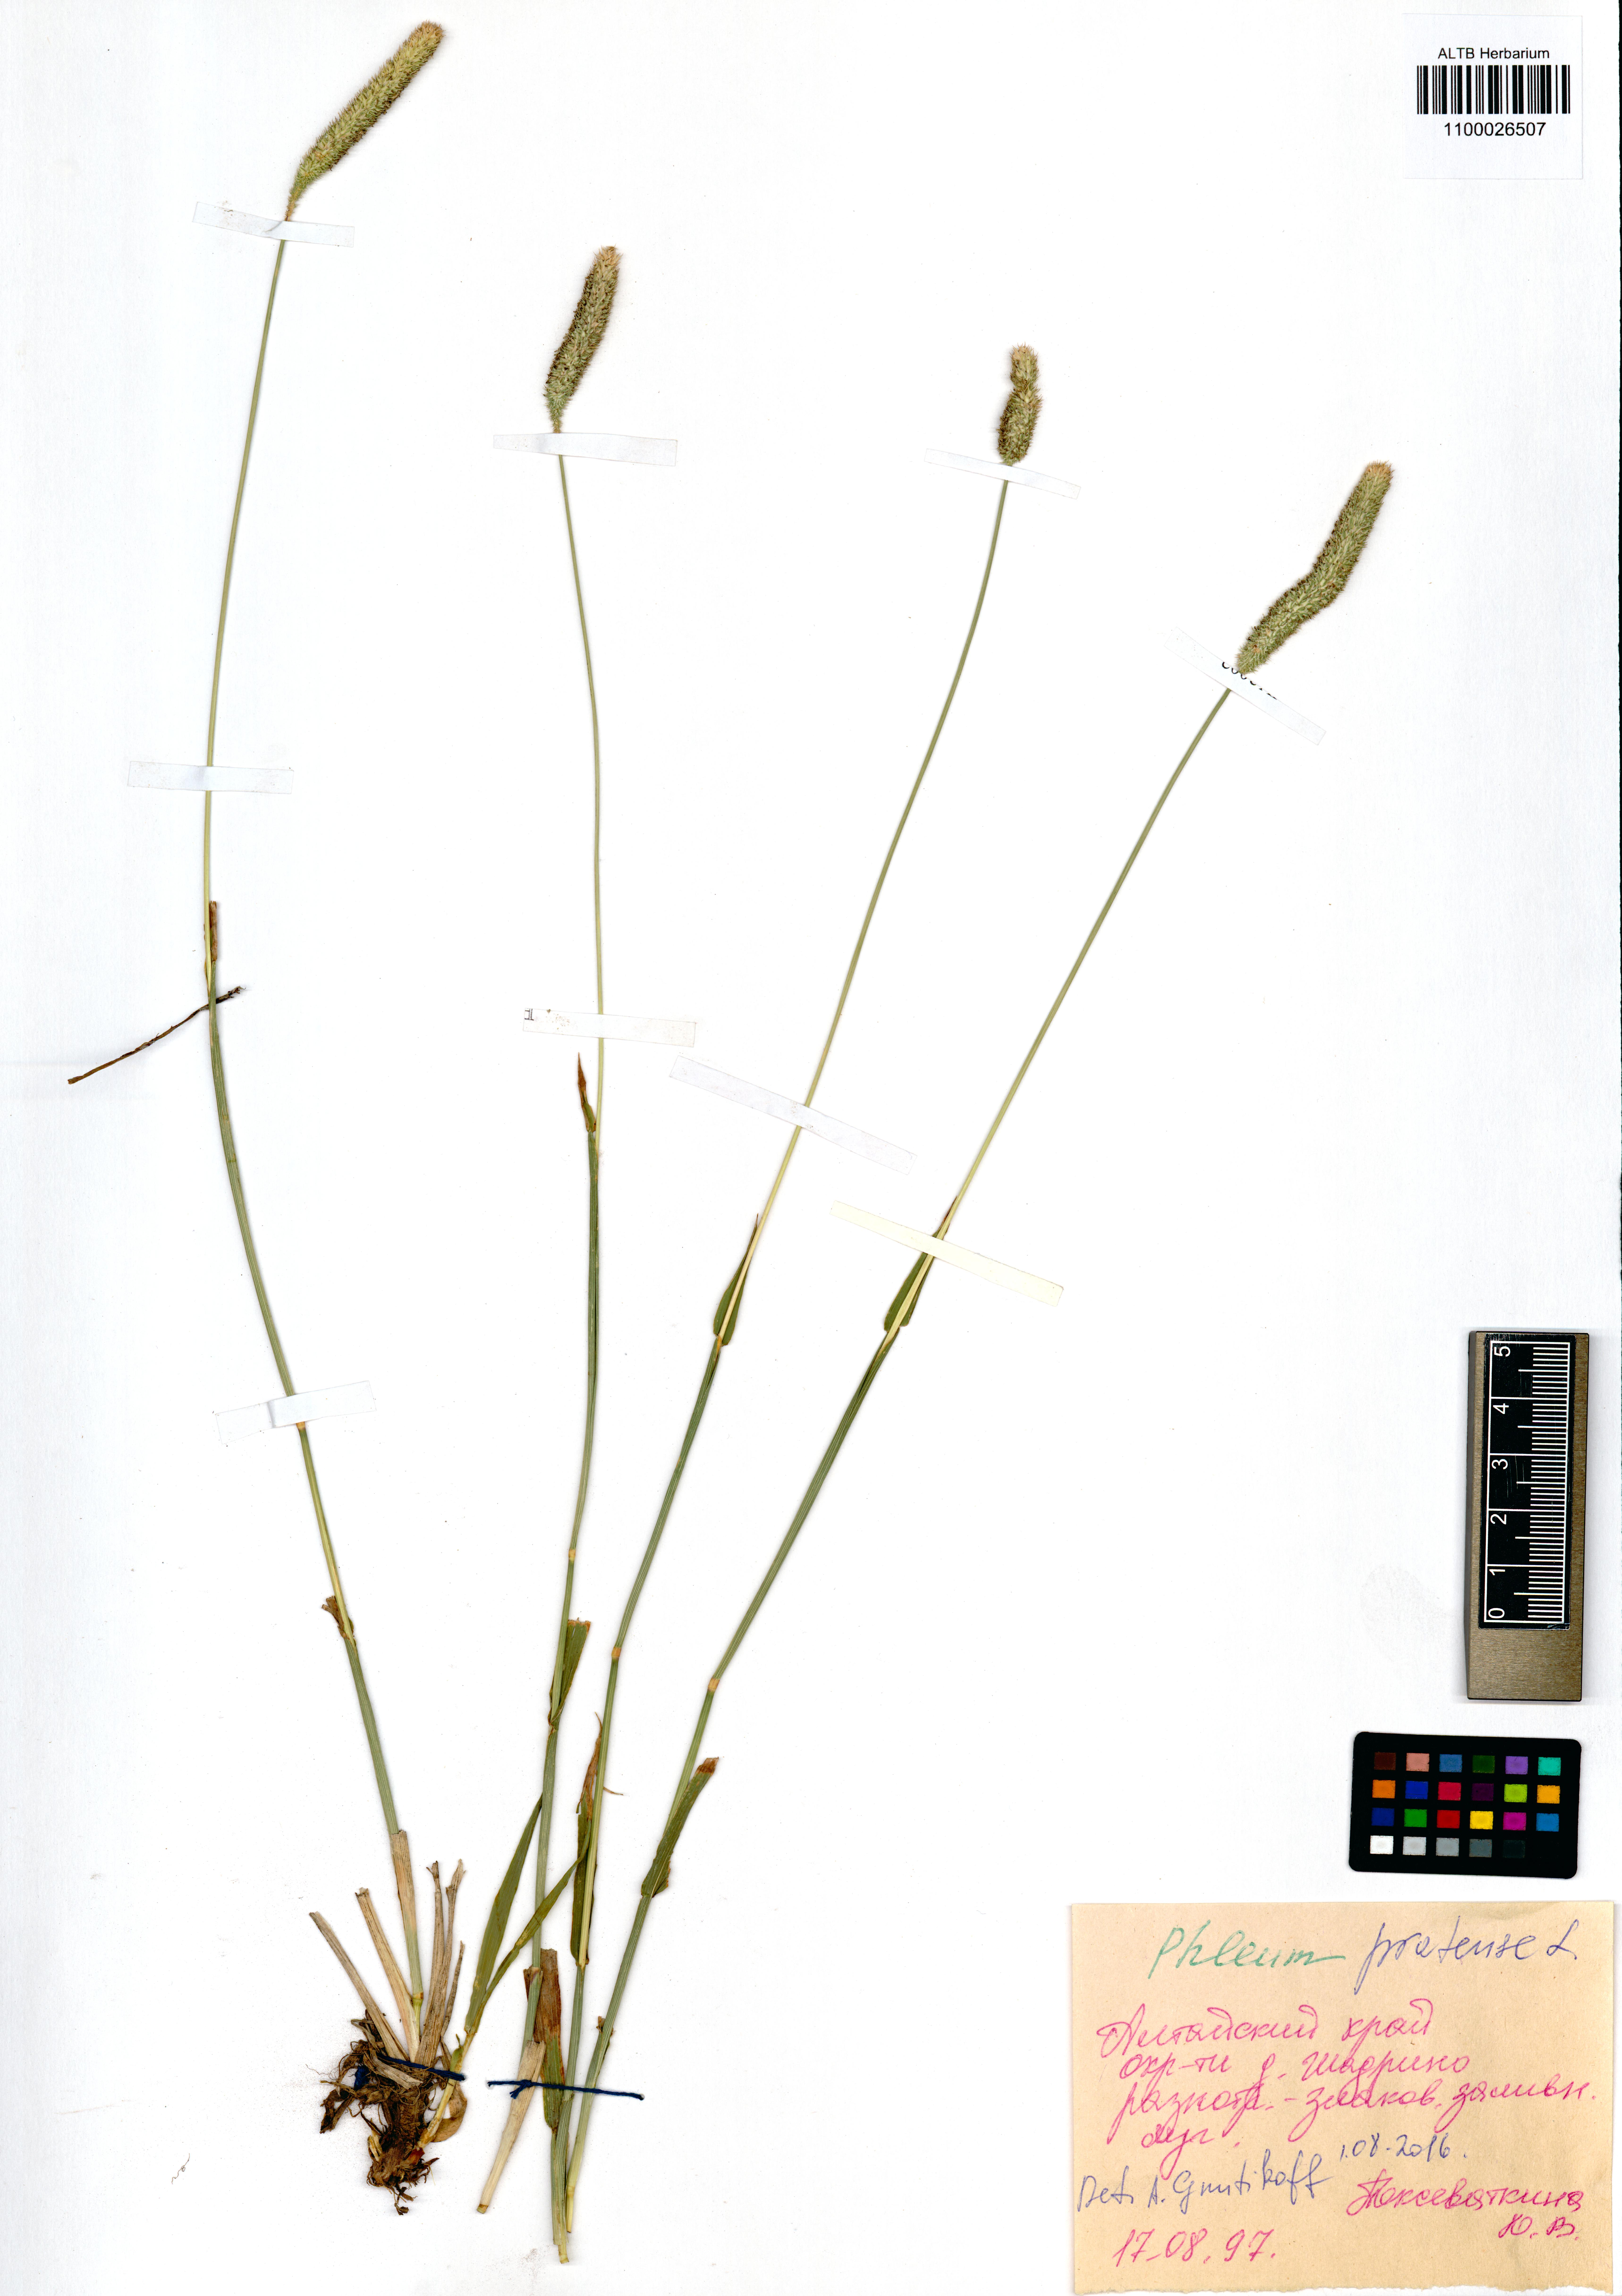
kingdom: Plantae
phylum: Tracheophyta
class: Liliopsida
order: Poales
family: Poaceae
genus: Phleum
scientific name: Phleum pratense
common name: Timothy grass
